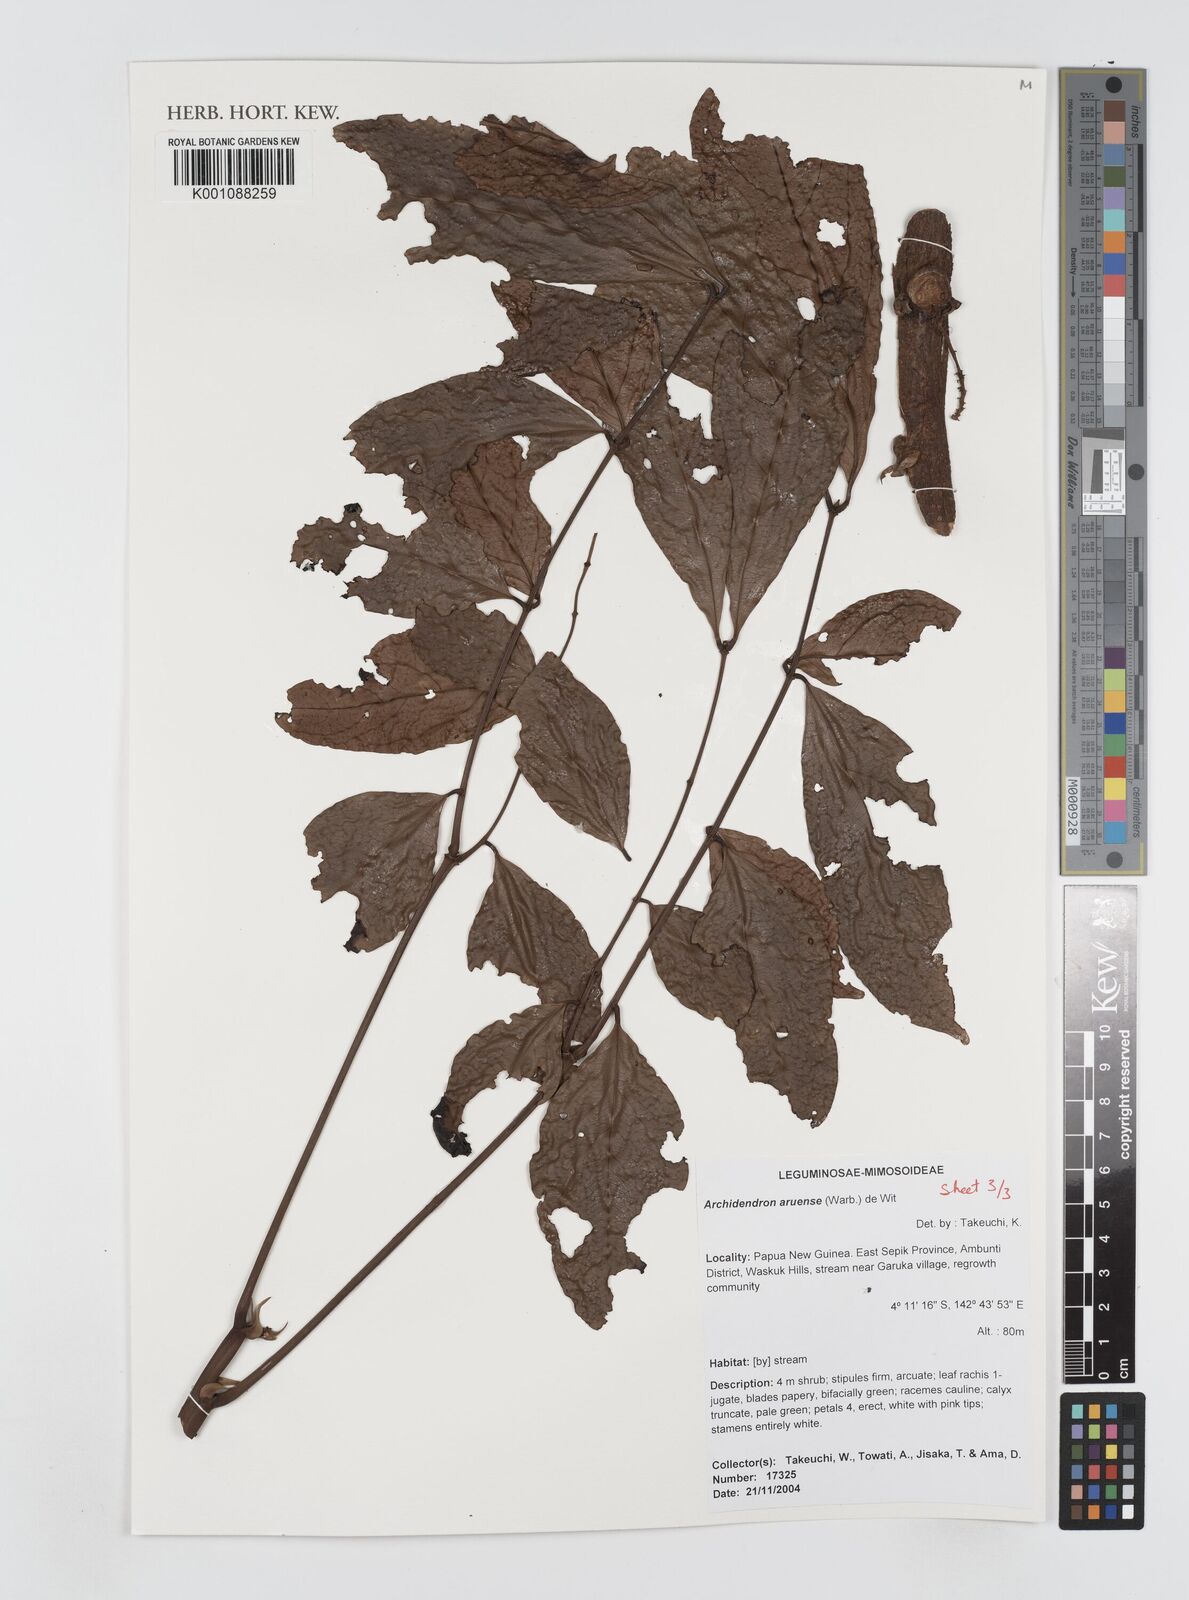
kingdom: Plantae
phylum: Tracheophyta
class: Magnoliopsida
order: Fabales
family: Fabaceae
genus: Archidendron
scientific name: Archidendron aruense
